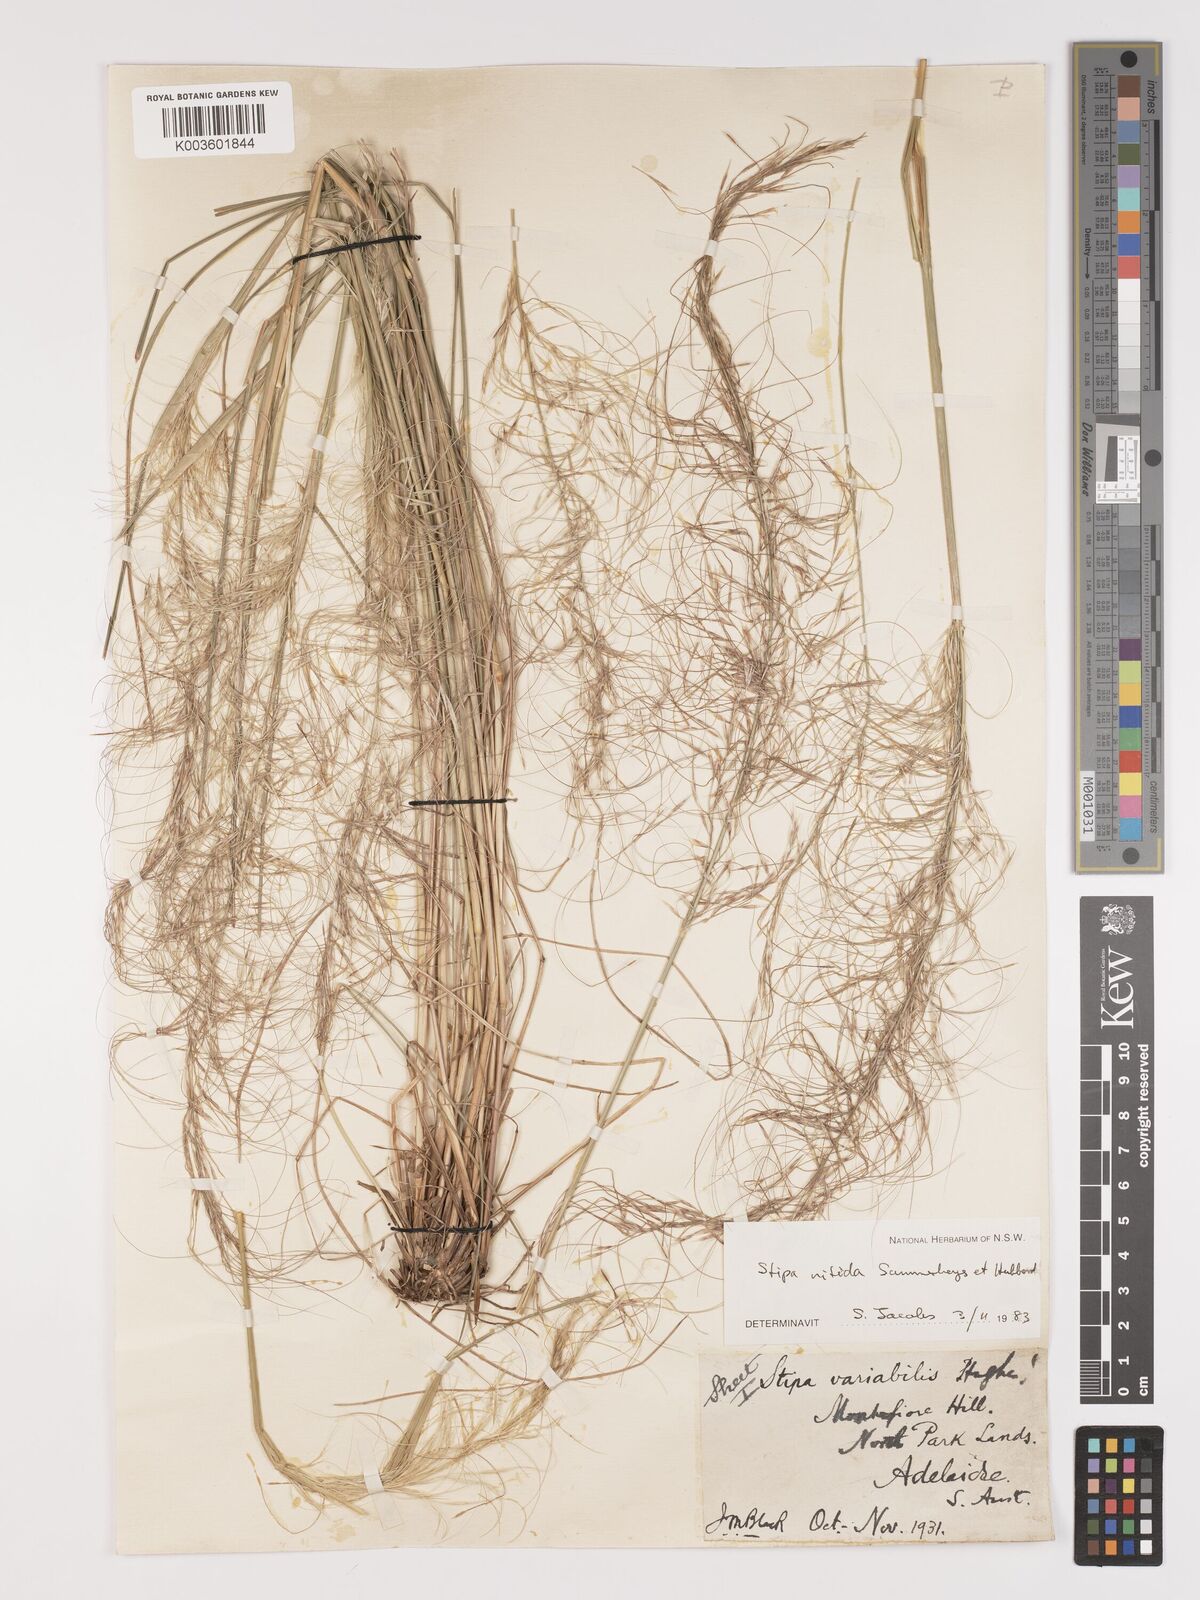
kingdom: Plantae
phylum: Tracheophyta
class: Liliopsida
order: Poales
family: Poaceae
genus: Austrostipa
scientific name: Austrostipa nitida
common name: Balcarra grass
